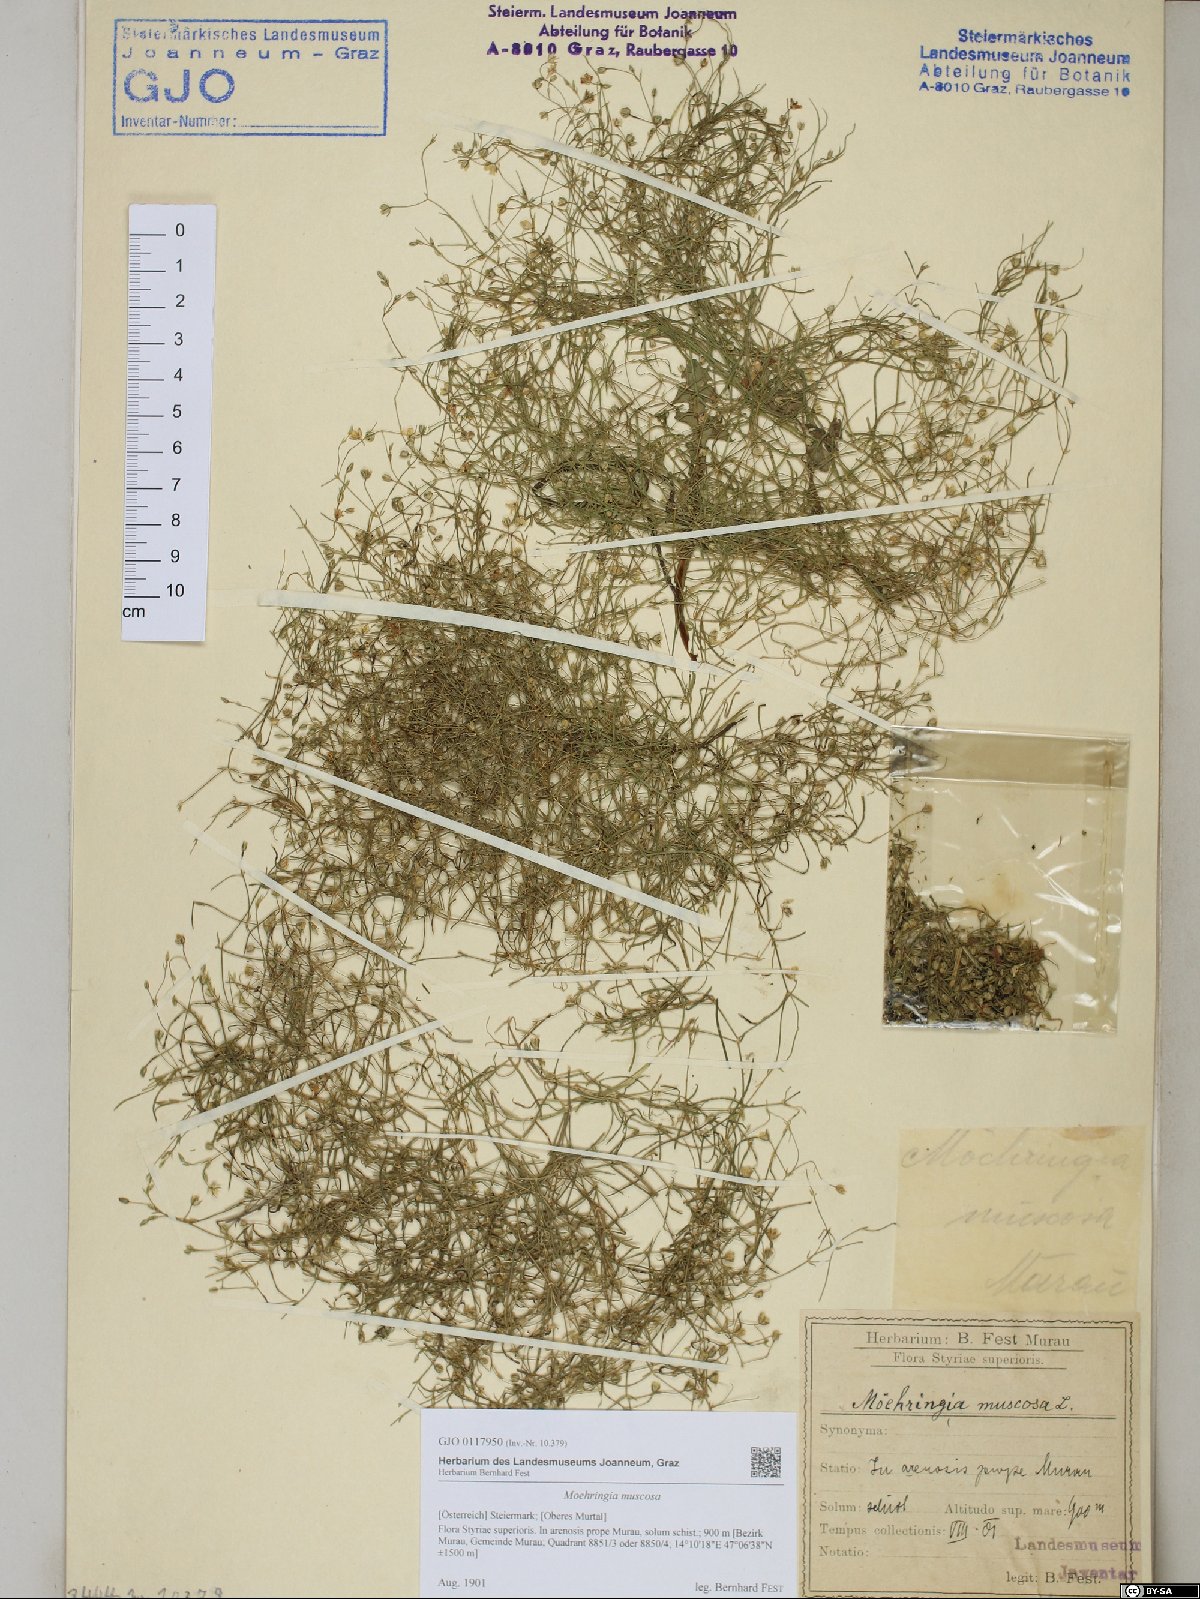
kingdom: Plantae
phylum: Tracheophyta
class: Magnoliopsida
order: Caryophyllales
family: Caryophyllaceae
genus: Moehringia
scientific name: Moehringia muscosa
